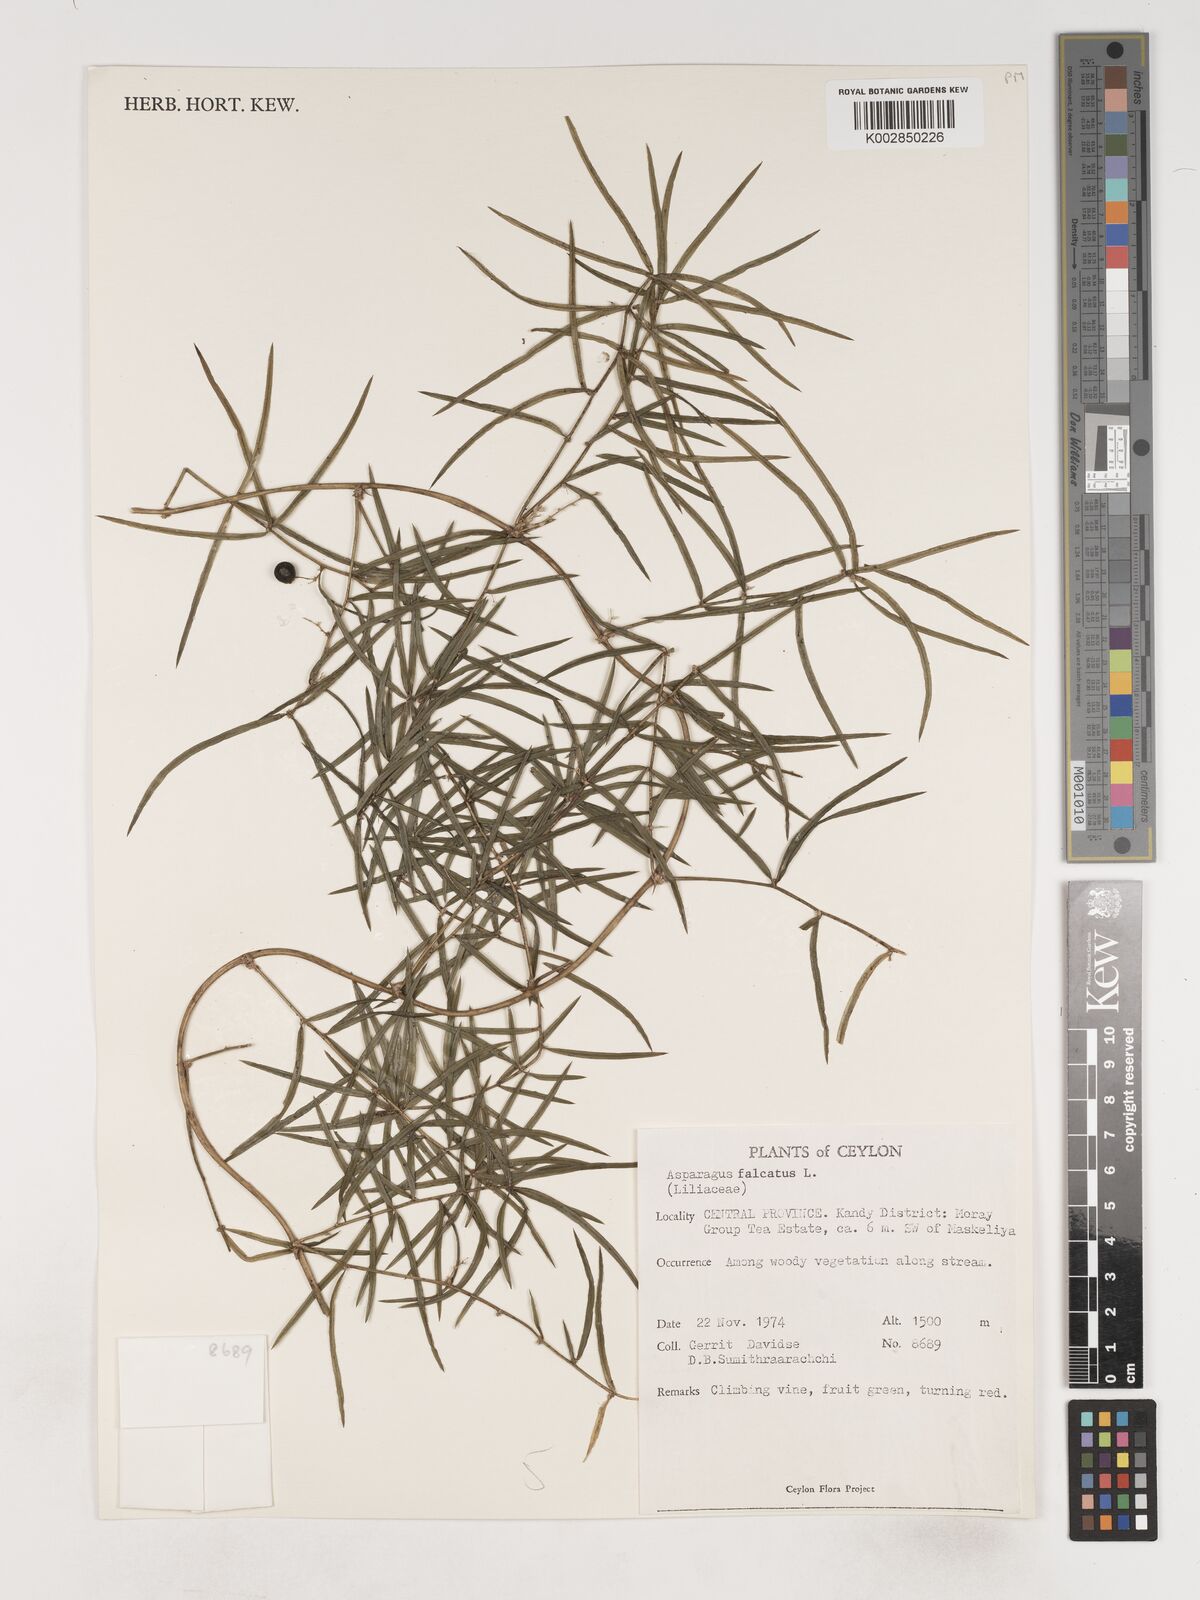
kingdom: Plantae
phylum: Tracheophyta
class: Liliopsida
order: Asparagales
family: Asparagaceae
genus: Asparagus
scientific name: Asparagus falcatus
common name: Asparagus
